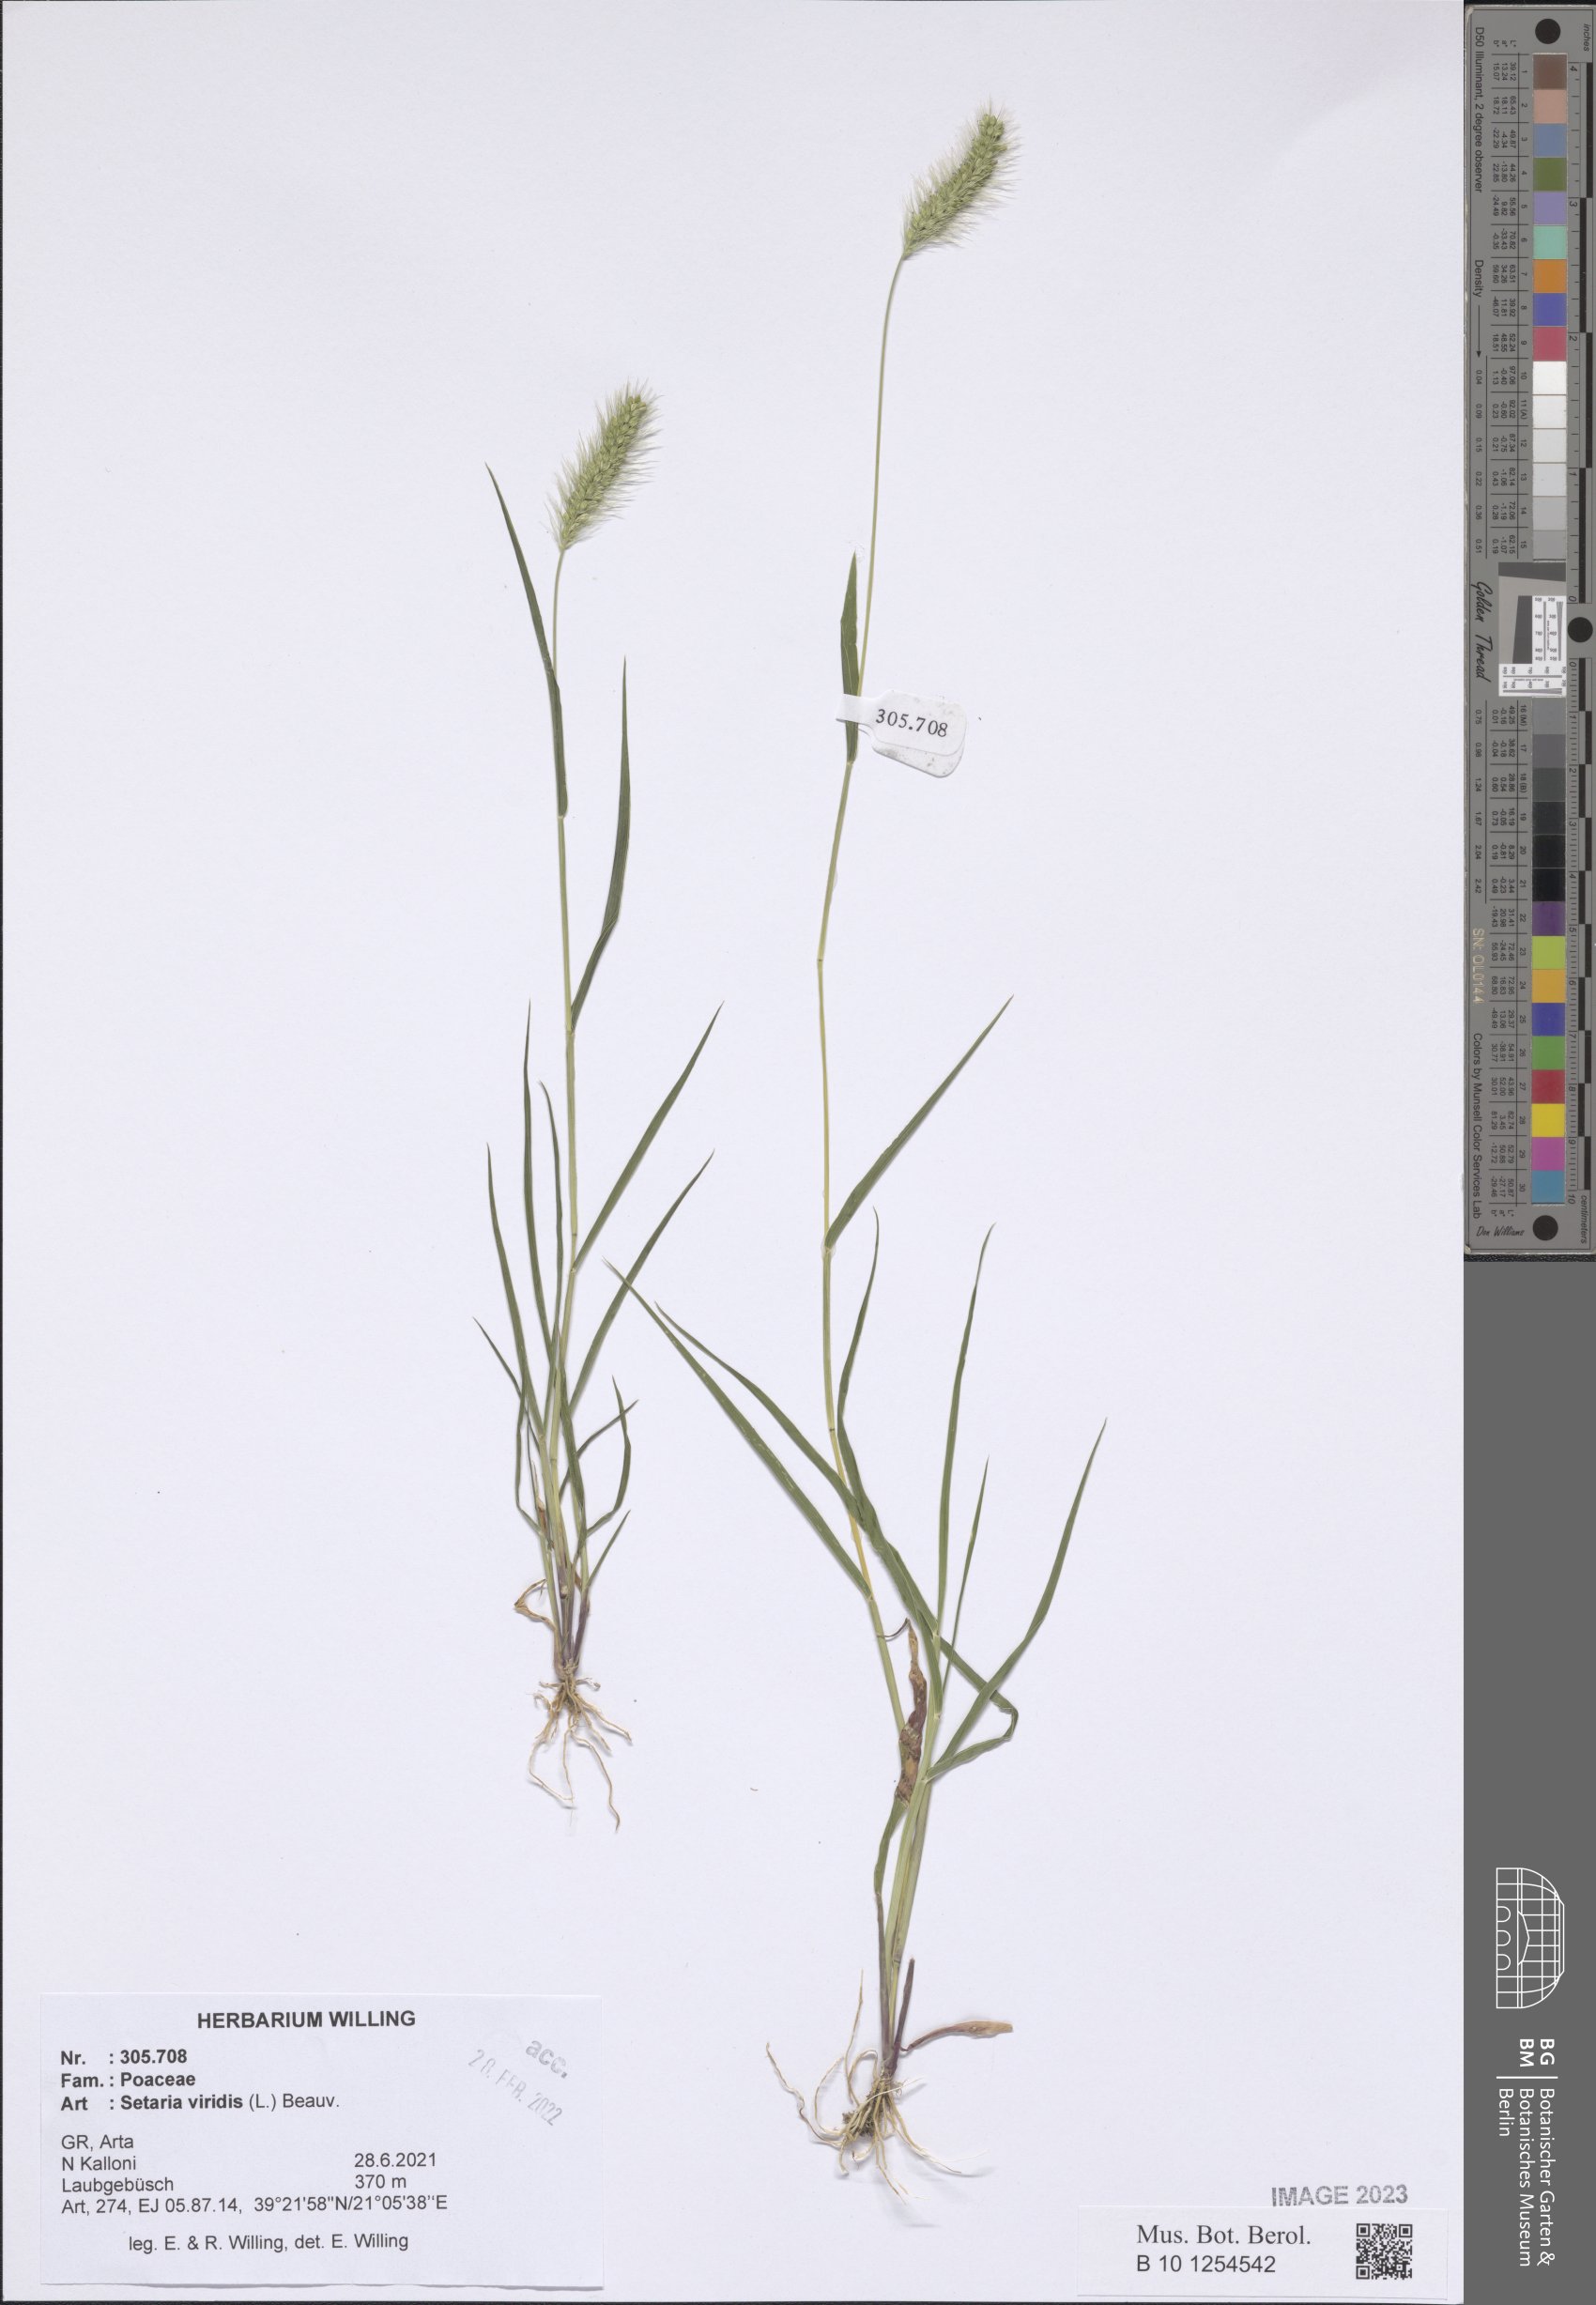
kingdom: Plantae
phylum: Tracheophyta
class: Liliopsida
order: Poales
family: Poaceae
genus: Setaria
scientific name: Setaria viridis
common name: Green bristlegrass
